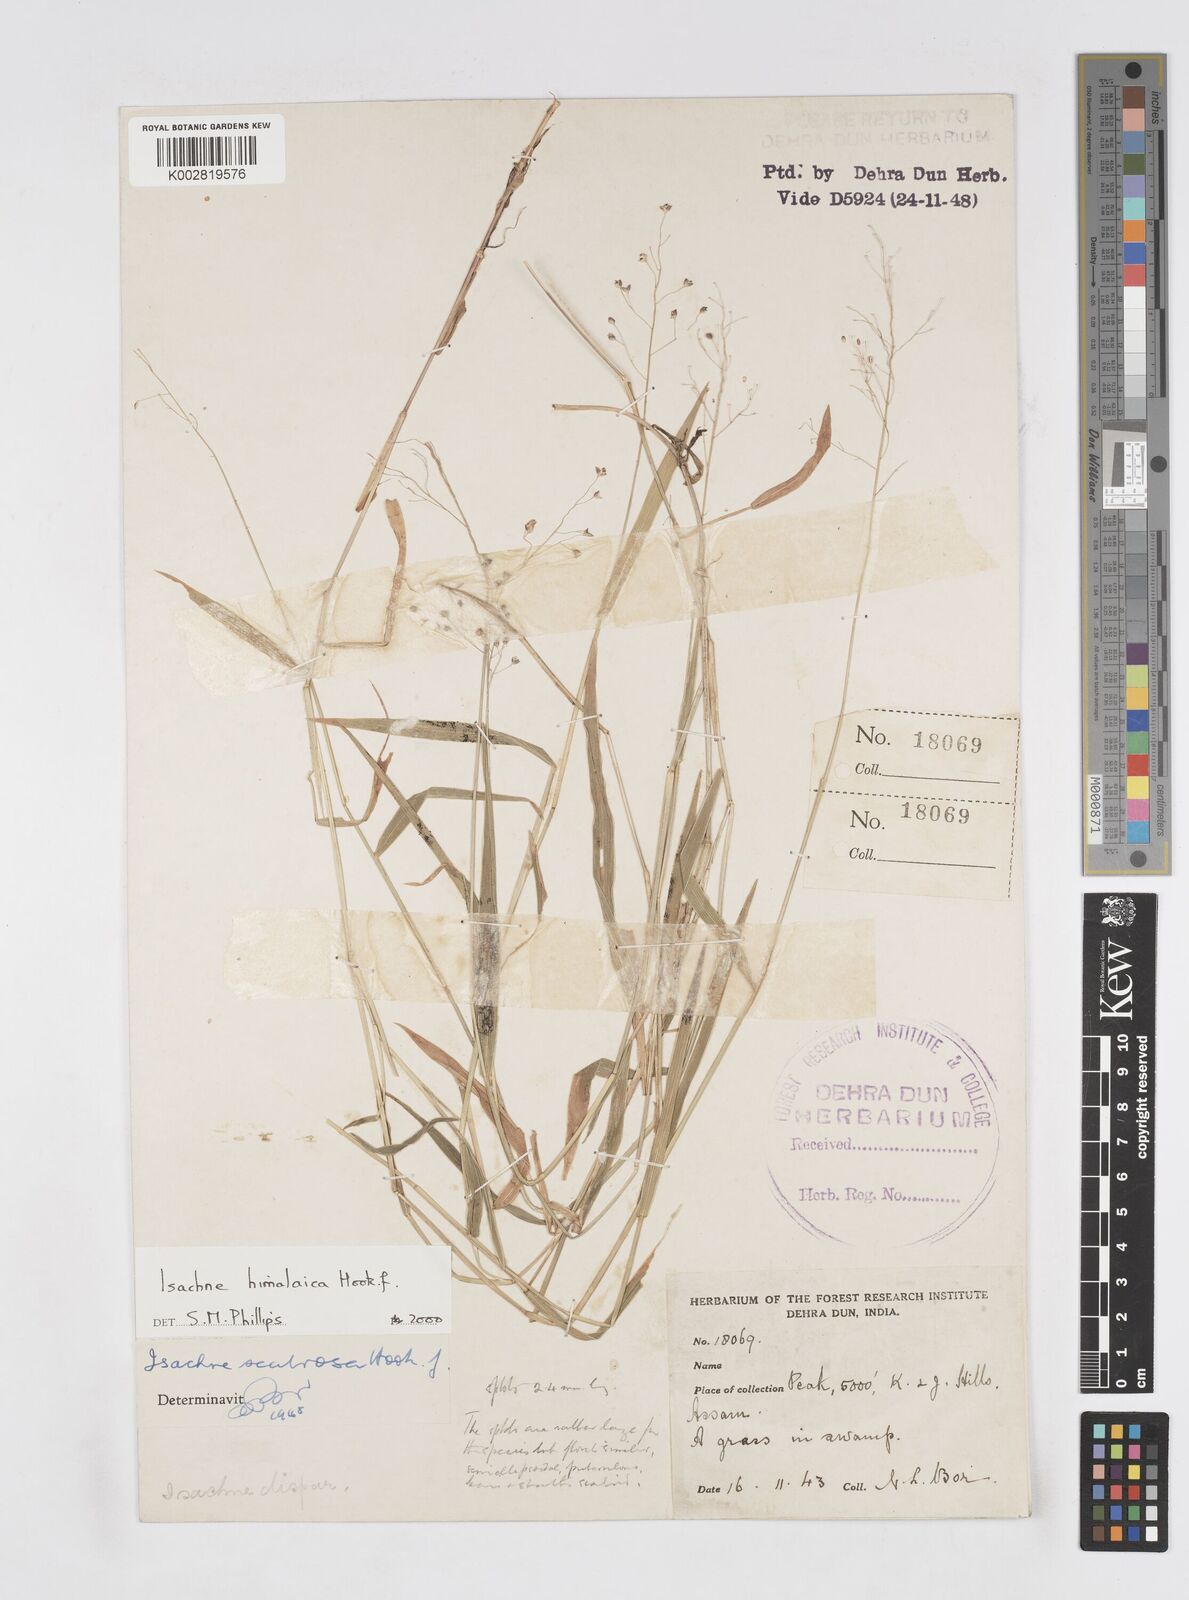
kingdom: Plantae
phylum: Tracheophyta
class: Liliopsida
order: Poales
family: Poaceae
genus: Isachne
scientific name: Isachne himalaica
